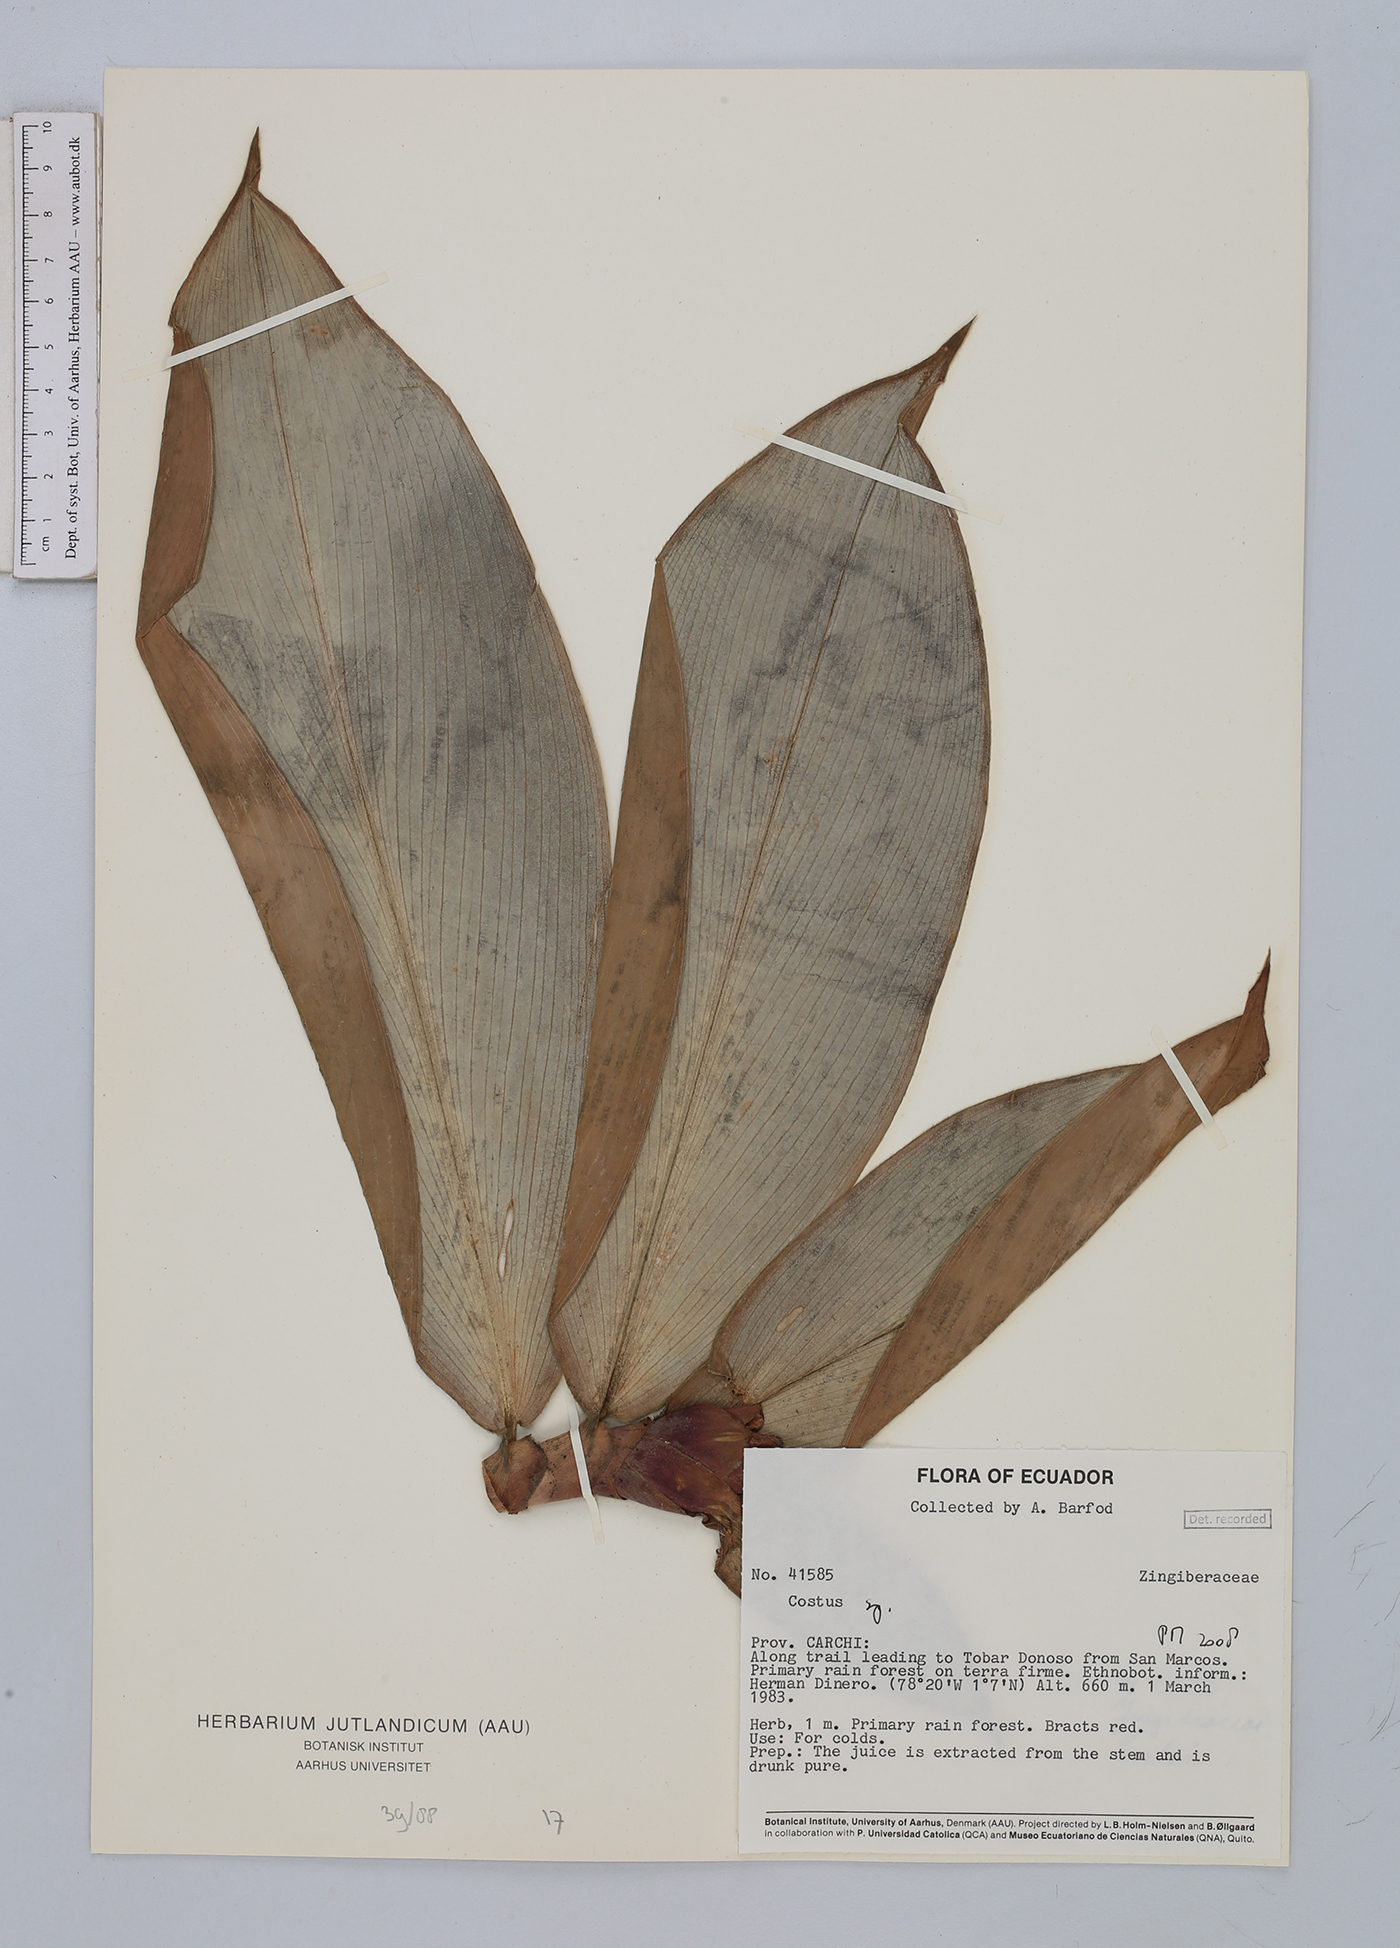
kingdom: Plantae
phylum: Tracheophyta
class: Liliopsida
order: Zingiberales
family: Costaceae
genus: Costus
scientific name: Costus
